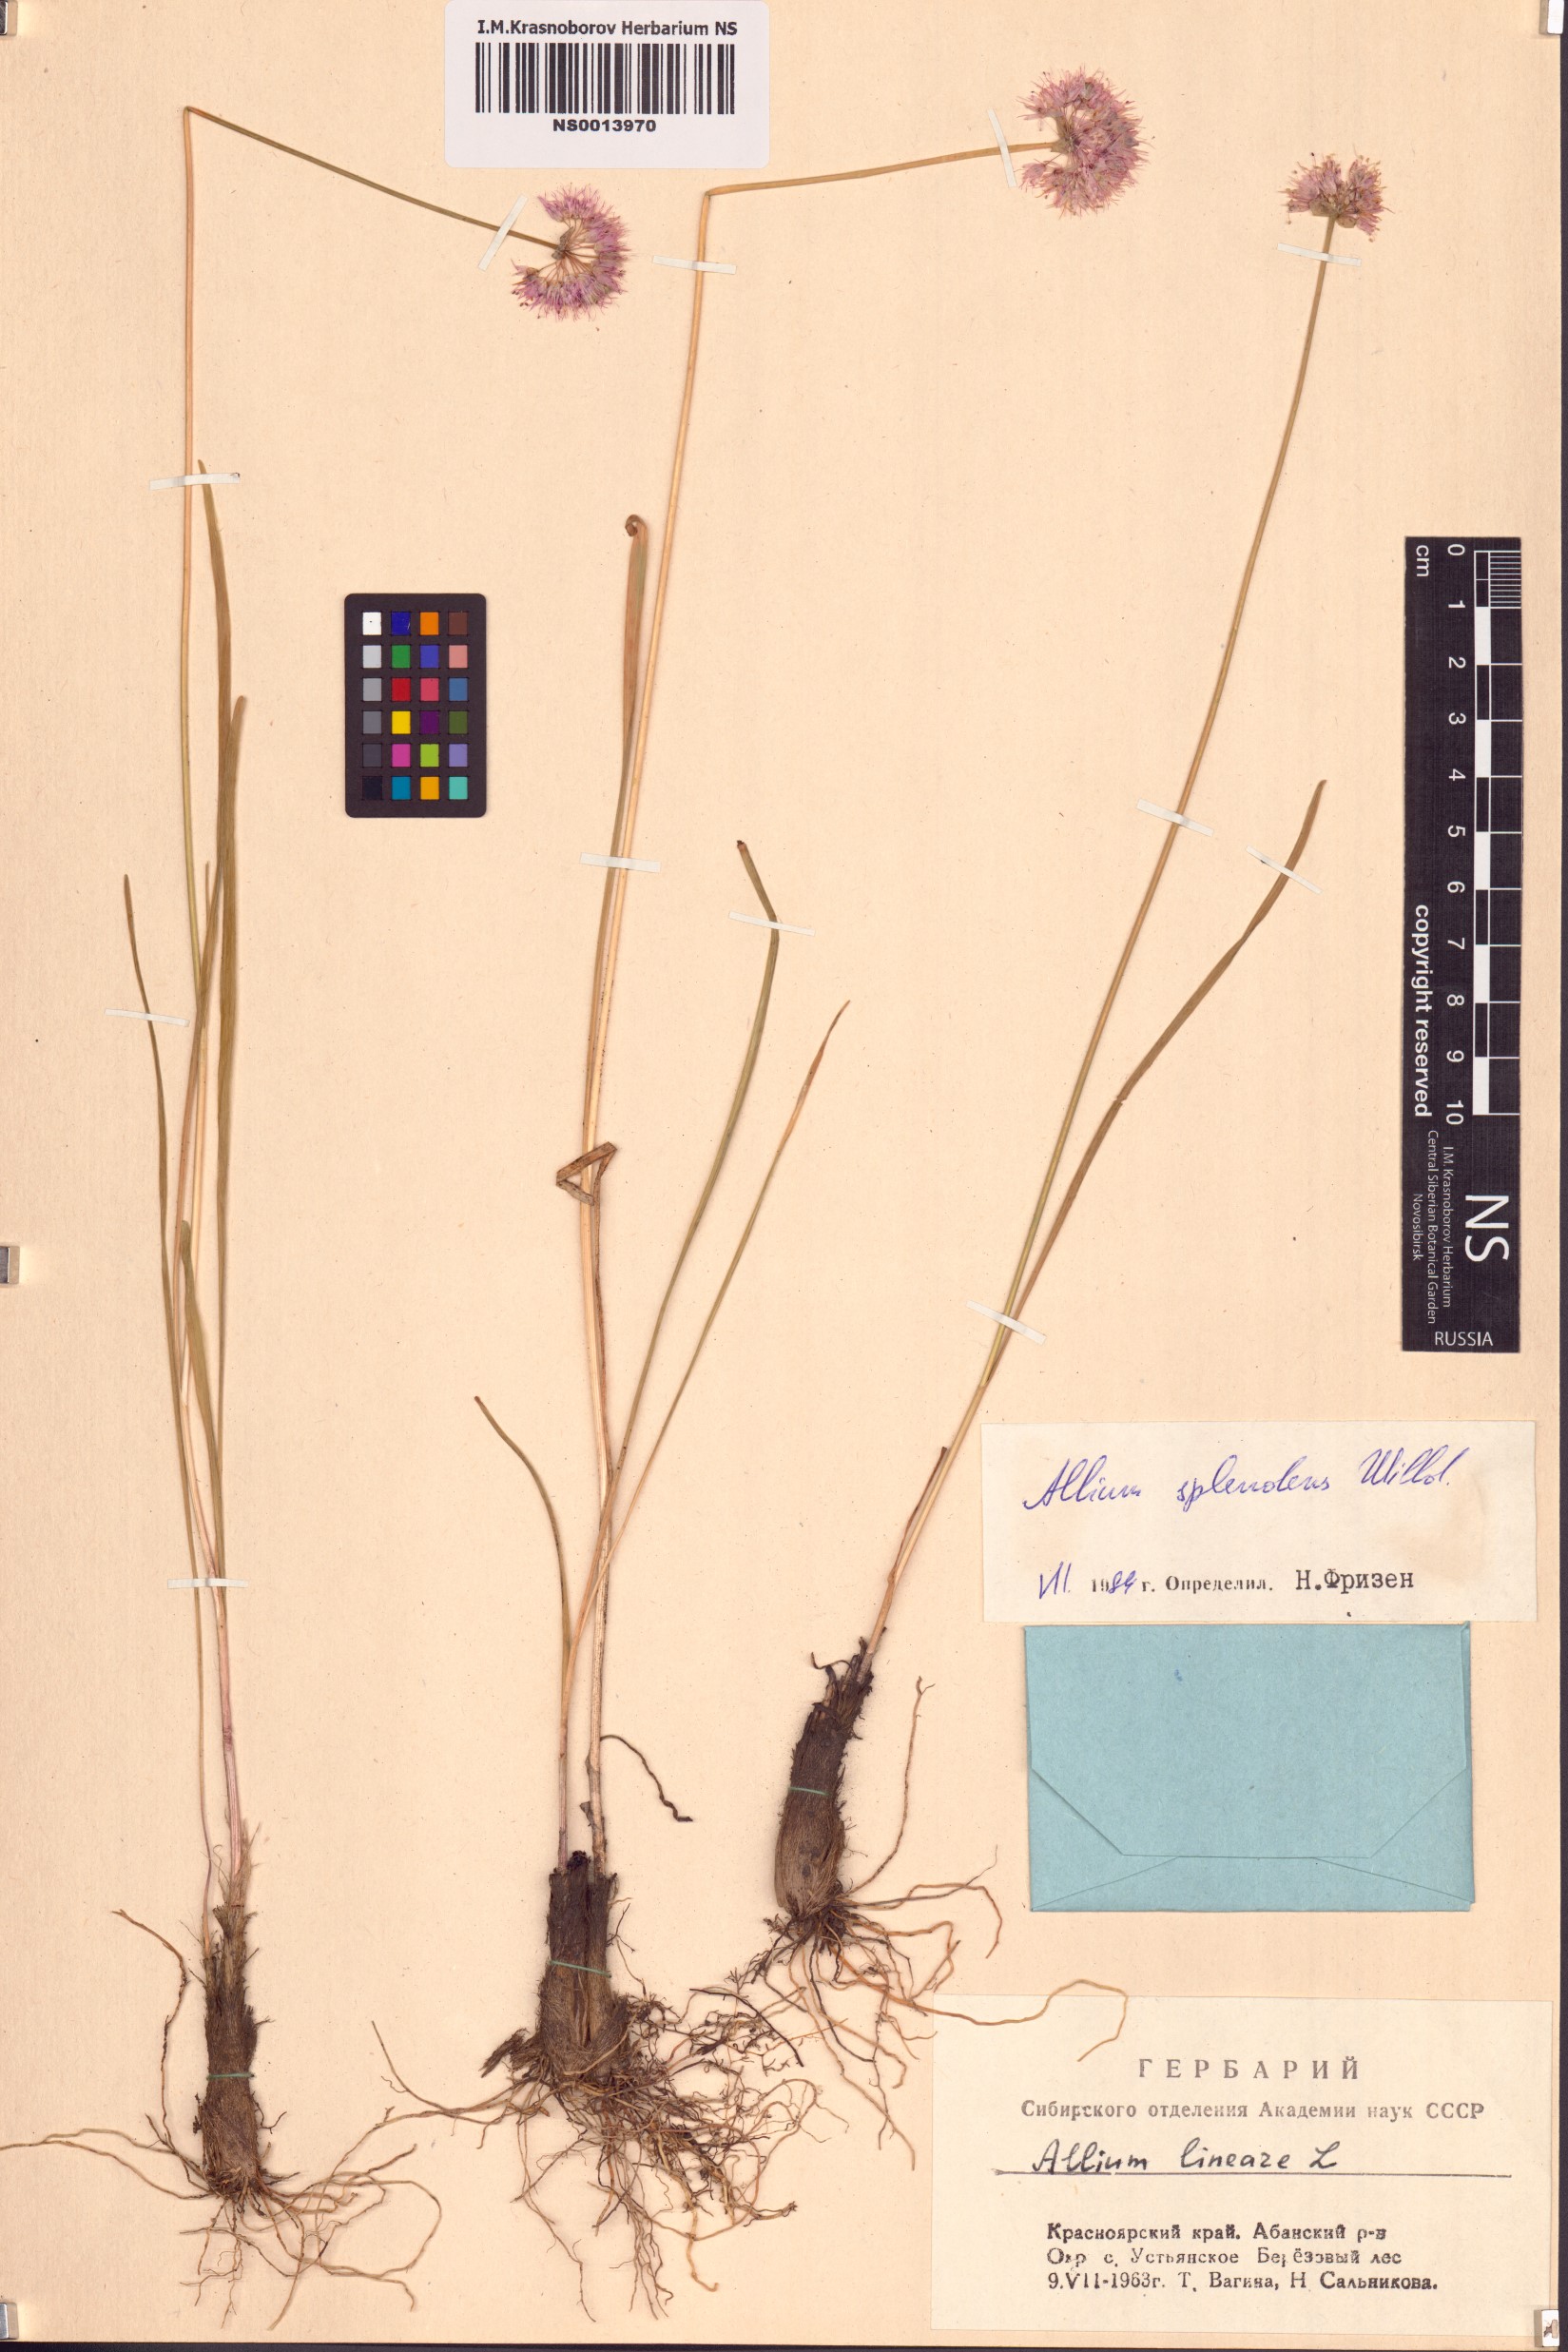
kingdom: Plantae
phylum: Tracheophyta
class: Liliopsida
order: Asparagales
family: Amaryllidaceae
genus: Allium
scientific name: Allium splendens
